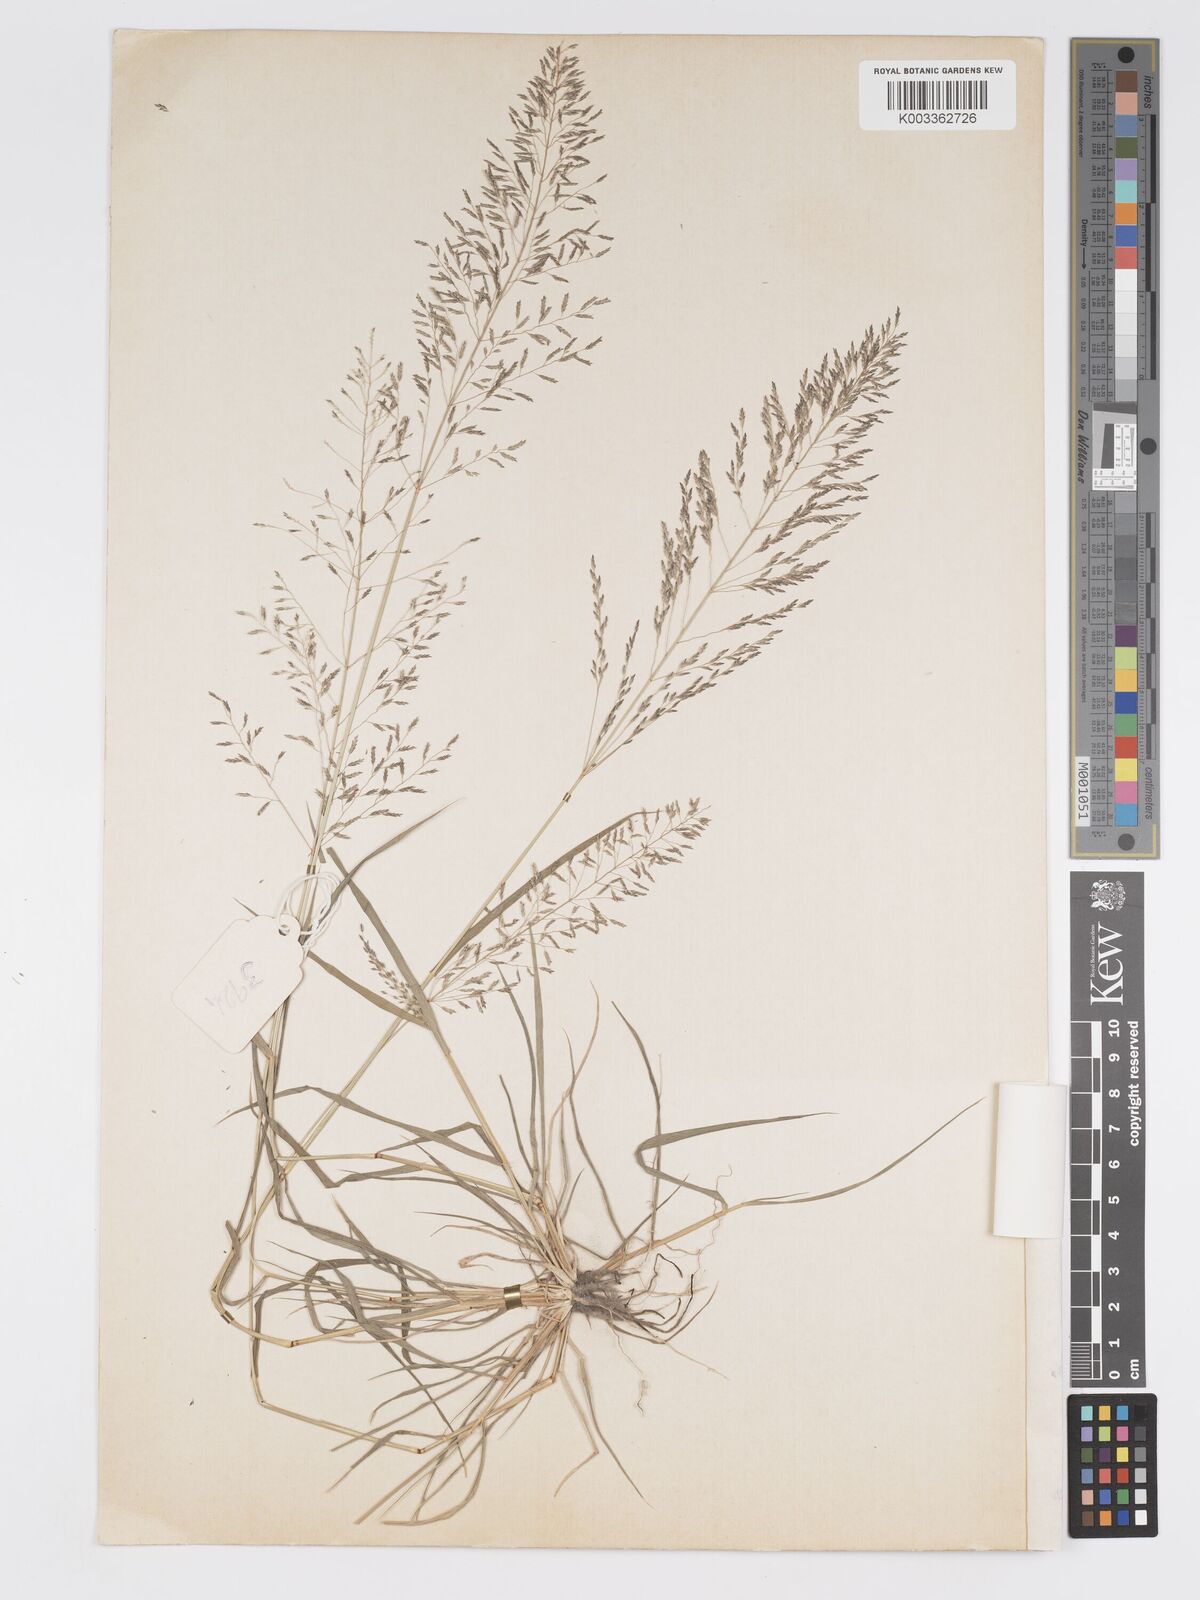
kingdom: Plantae
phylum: Tracheophyta
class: Liliopsida
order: Poales
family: Poaceae
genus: Eragrostis
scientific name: Eragrostis cylindriflora
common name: Cylinderflower lovegrass
